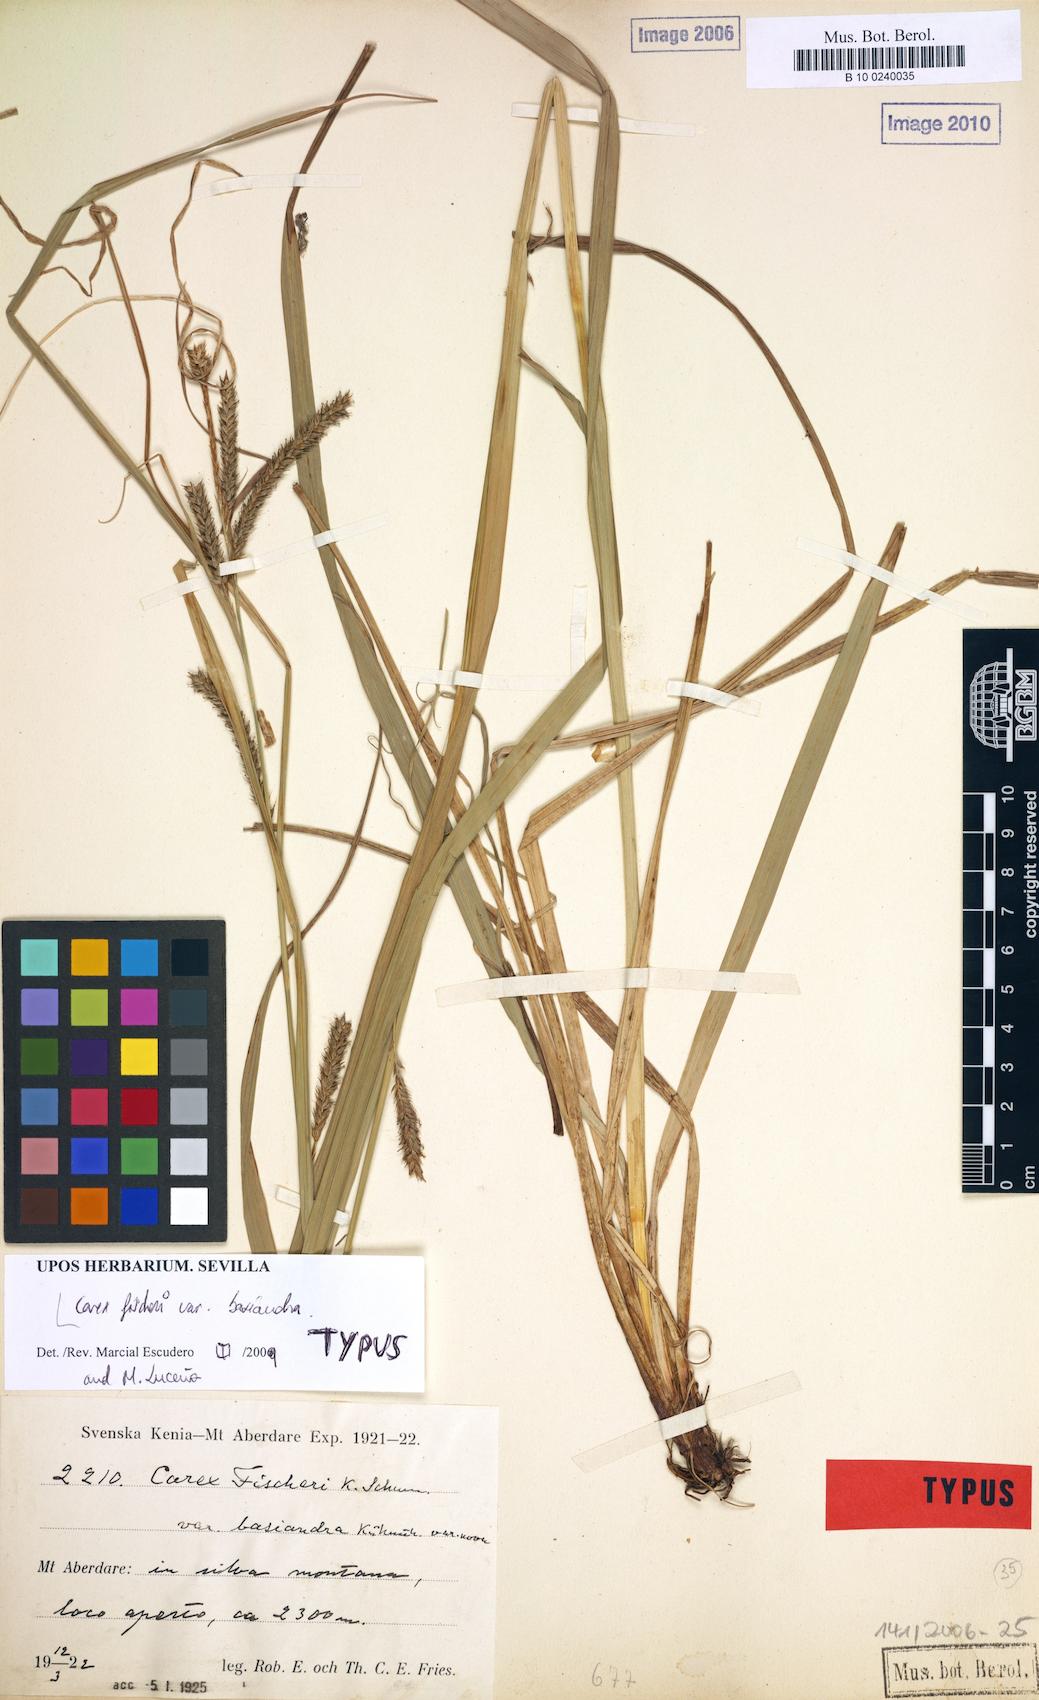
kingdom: Plantae
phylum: Tracheophyta
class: Liliopsida
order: Poales
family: Cyperaceae
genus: Carex
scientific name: Carex fischeri
